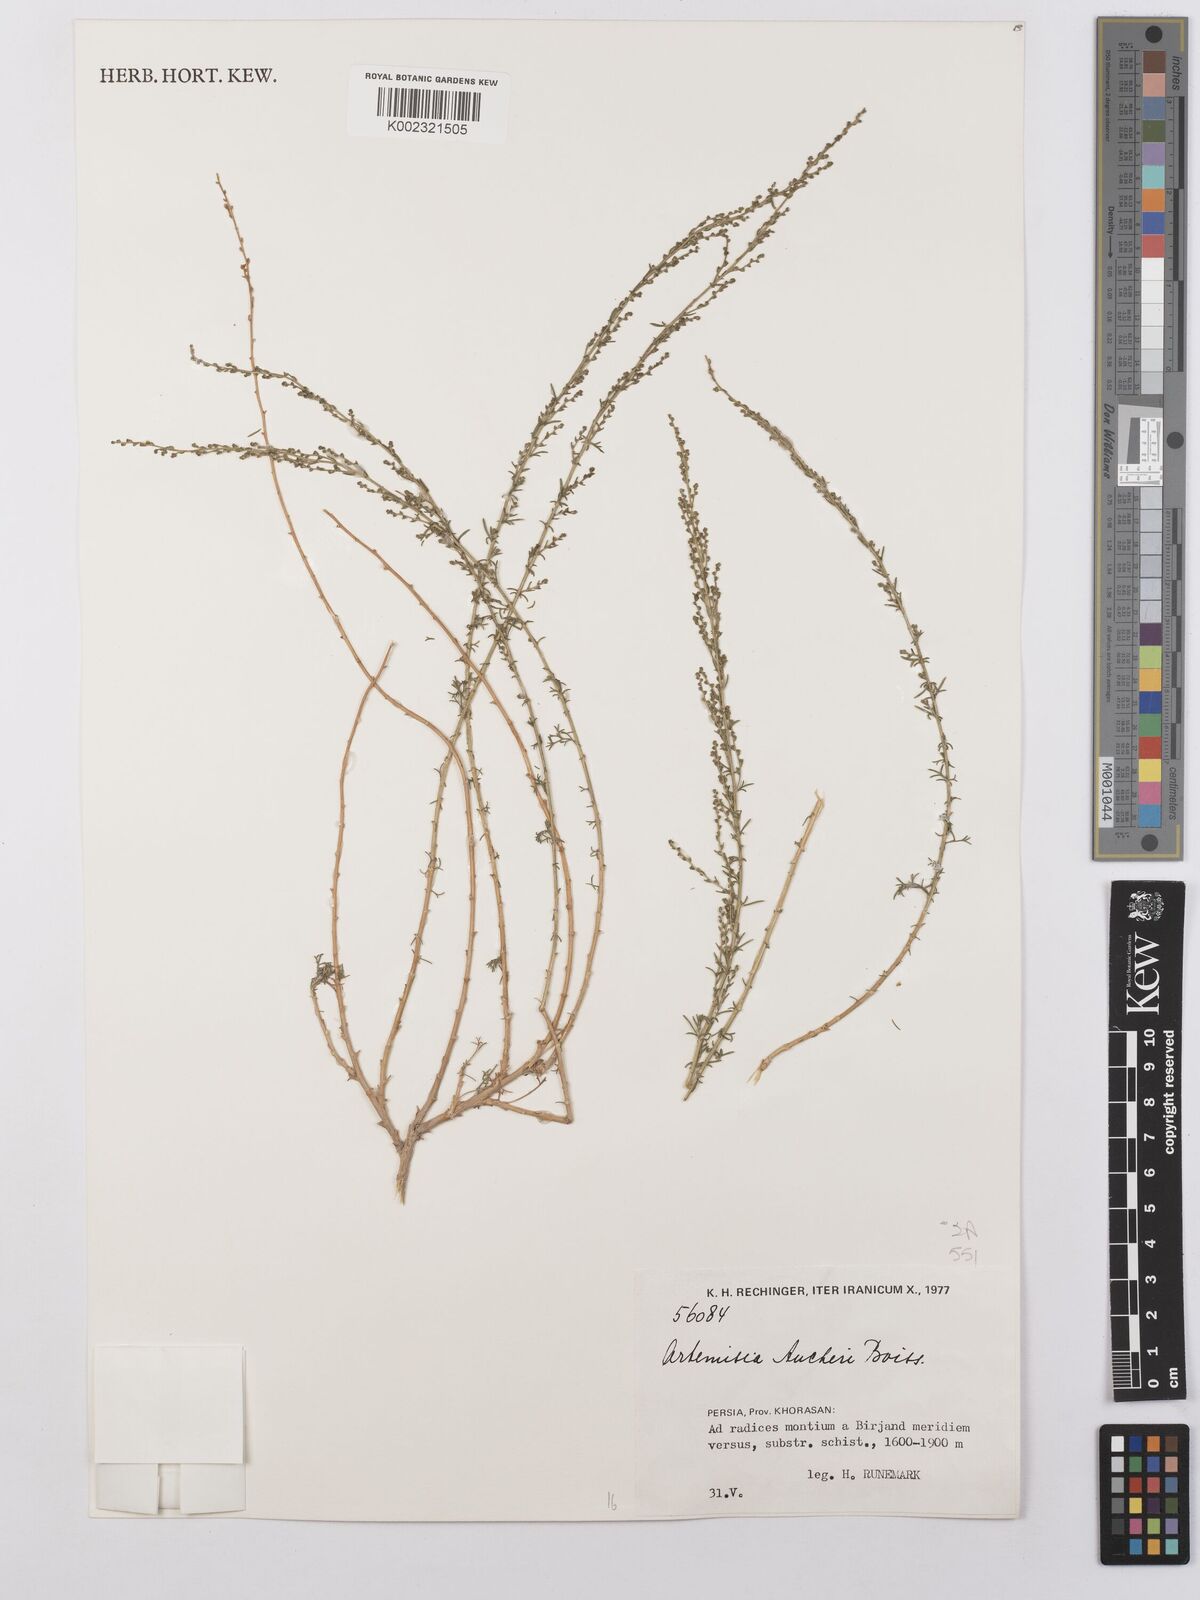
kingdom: Plantae
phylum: Tracheophyta
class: Magnoliopsida
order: Asterales
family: Asteraceae
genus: Artemisia
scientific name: Artemisia aucheri
